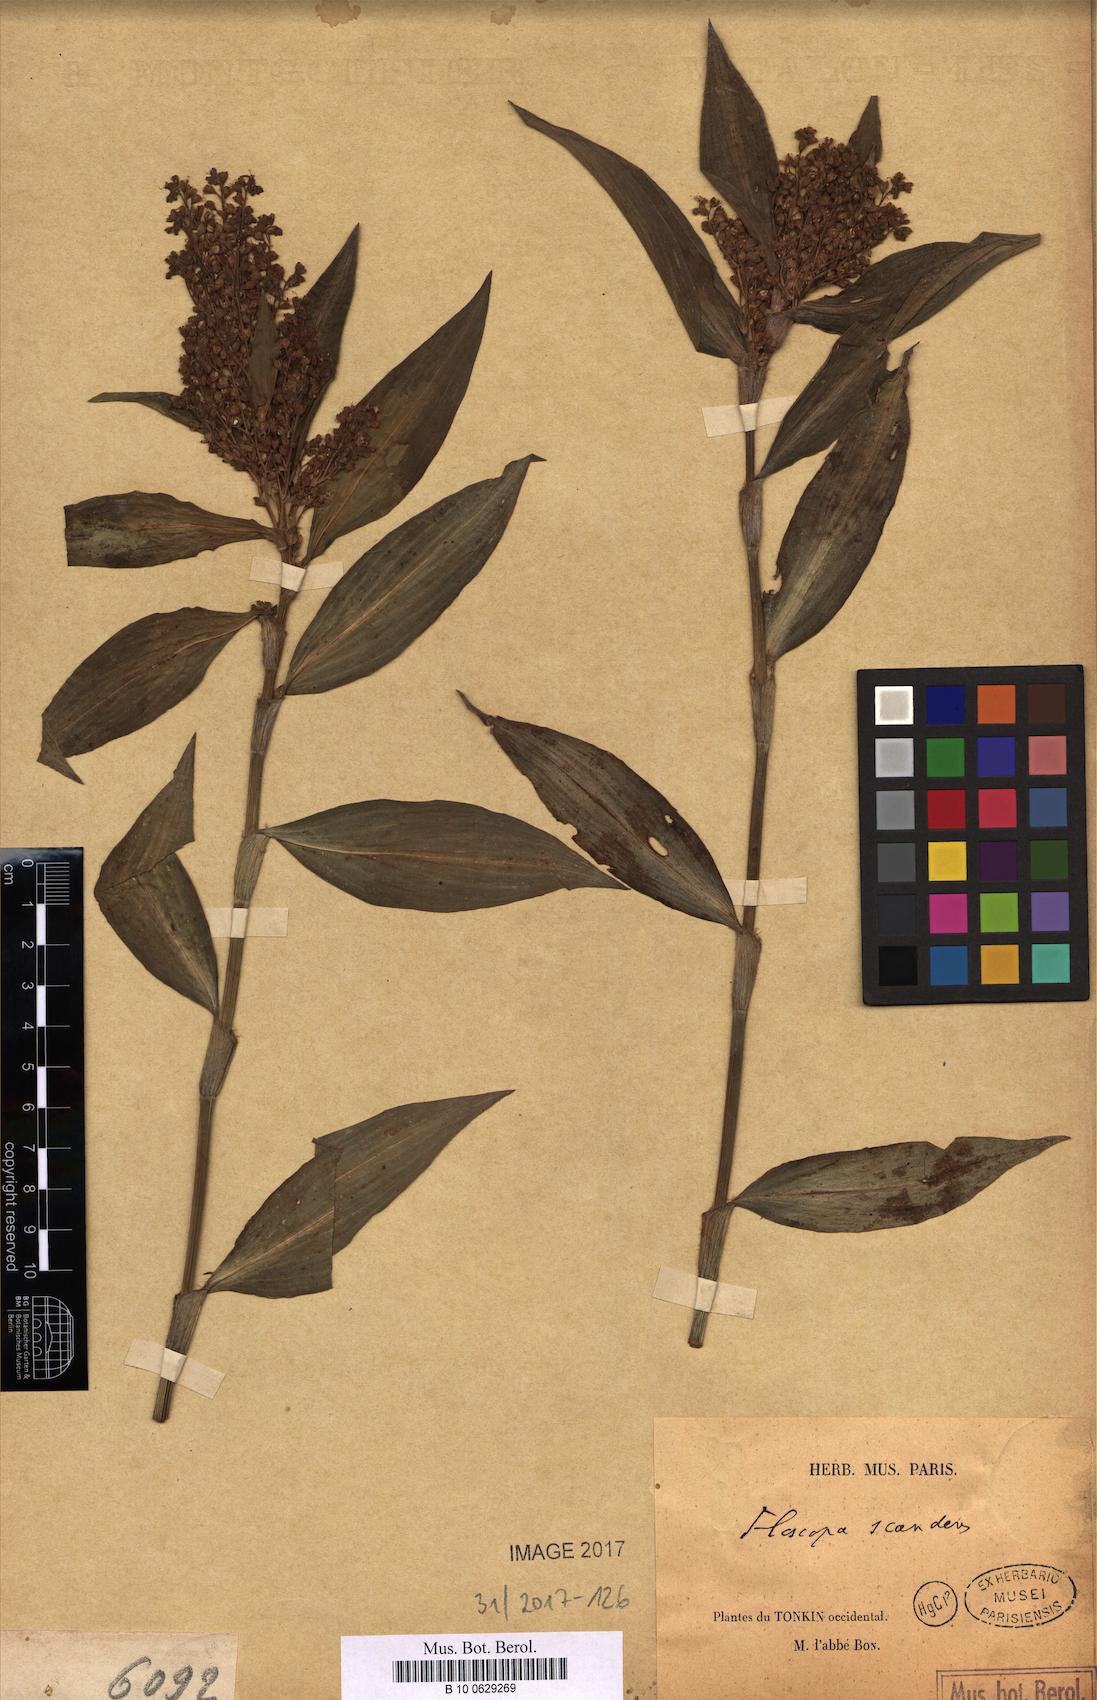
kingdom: Plantae
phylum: Tracheophyta
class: Liliopsida
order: Commelinales
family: Commelinaceae
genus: Floscopa
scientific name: Floscopa scandens
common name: Climbing flower cup
